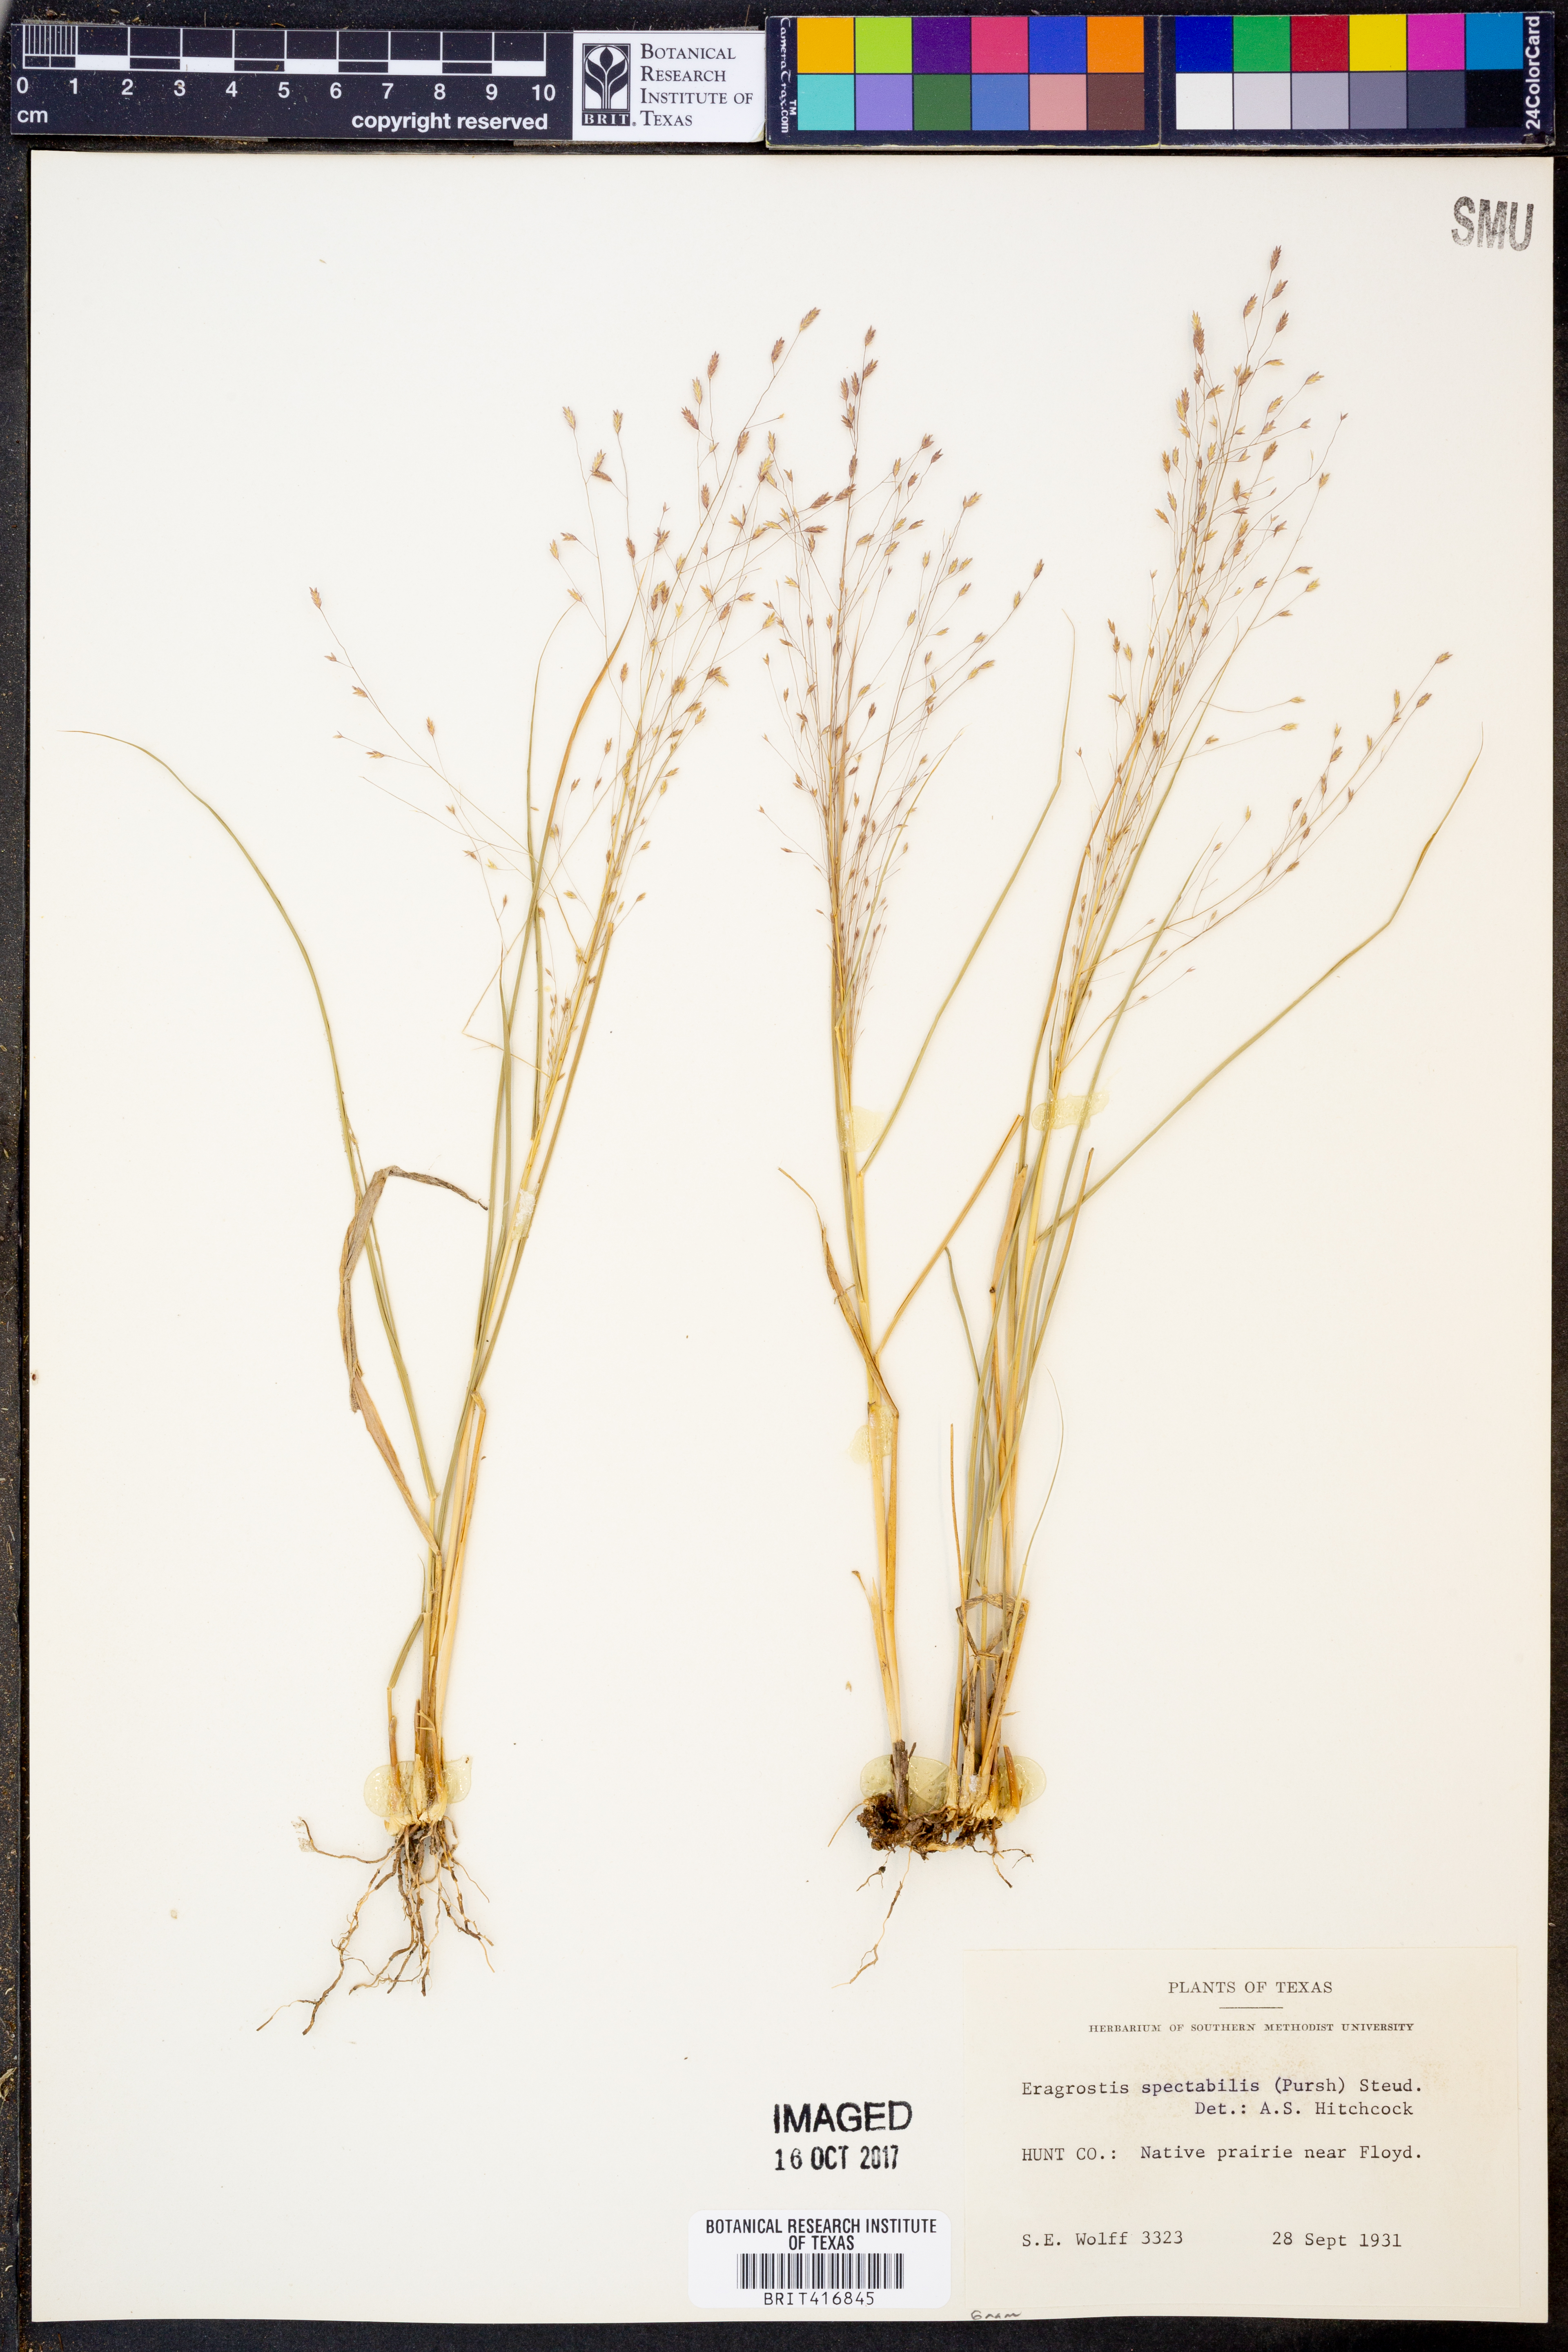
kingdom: Plantae
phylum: Tracheophyta
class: Liliopsida
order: Poales
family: Poaceae
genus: Eragrostis
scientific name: Eragrostis spectabilis
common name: Petticoat-climber
